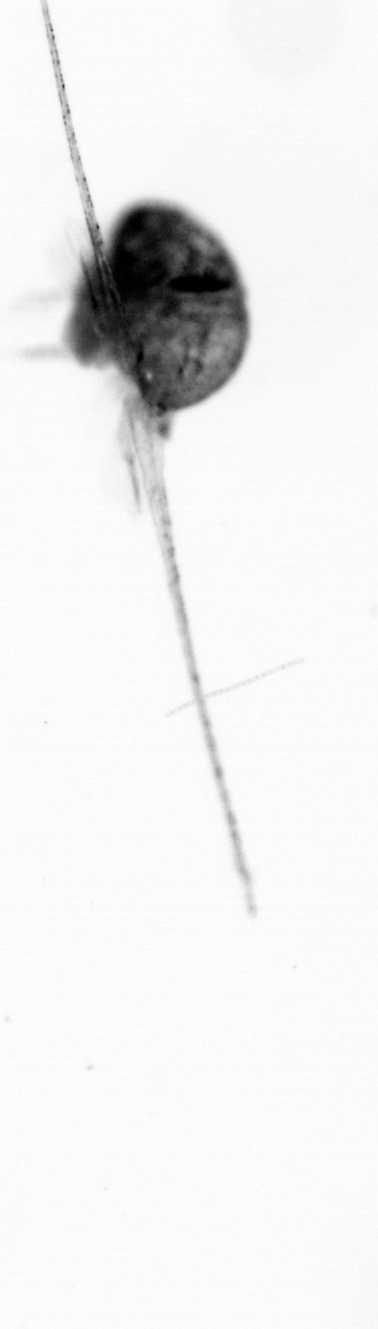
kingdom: Animalia
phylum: Arthropoda
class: Copepoda
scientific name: Copepoda
